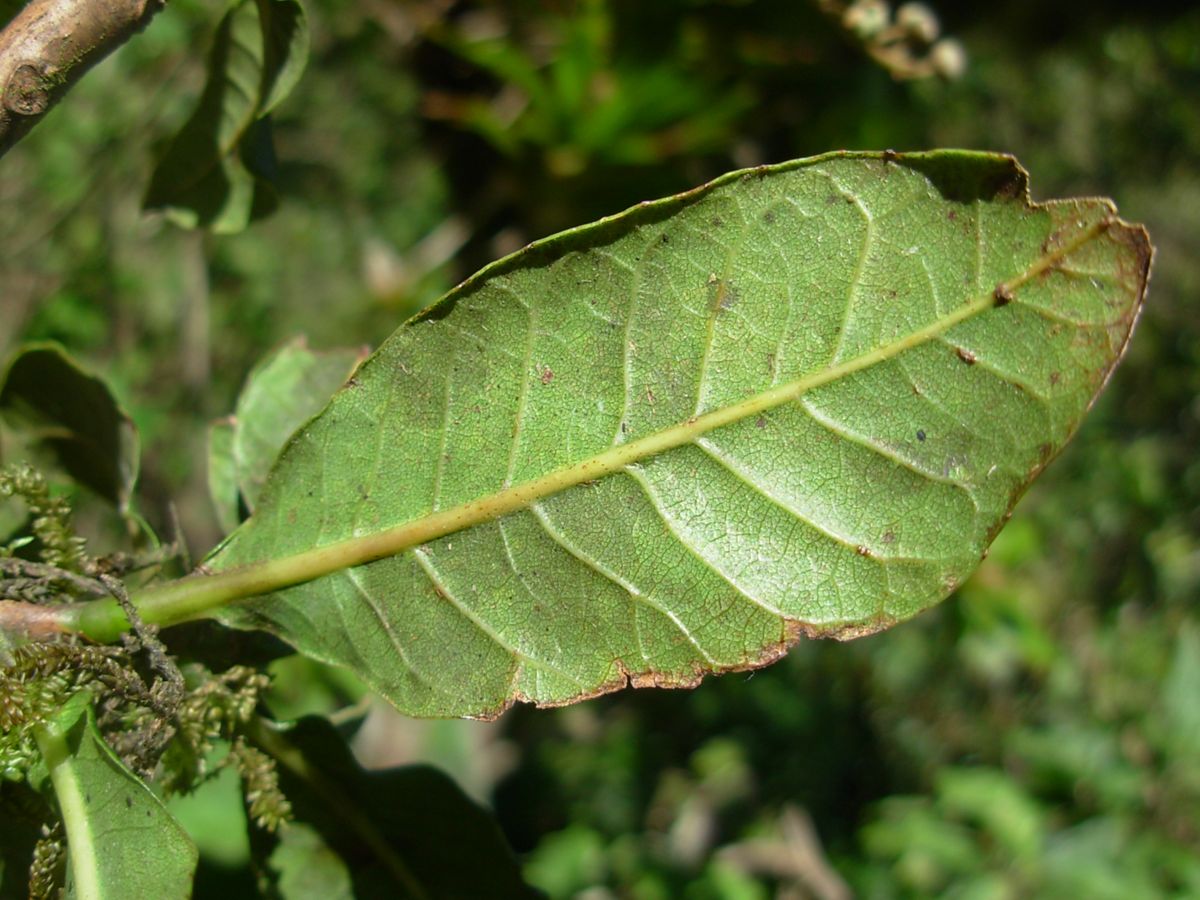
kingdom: Plantae
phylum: Tracheophyta
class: Magnoliopsida
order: Ericales
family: Clethraceae
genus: Clethra
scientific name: Clethra suaveolens
